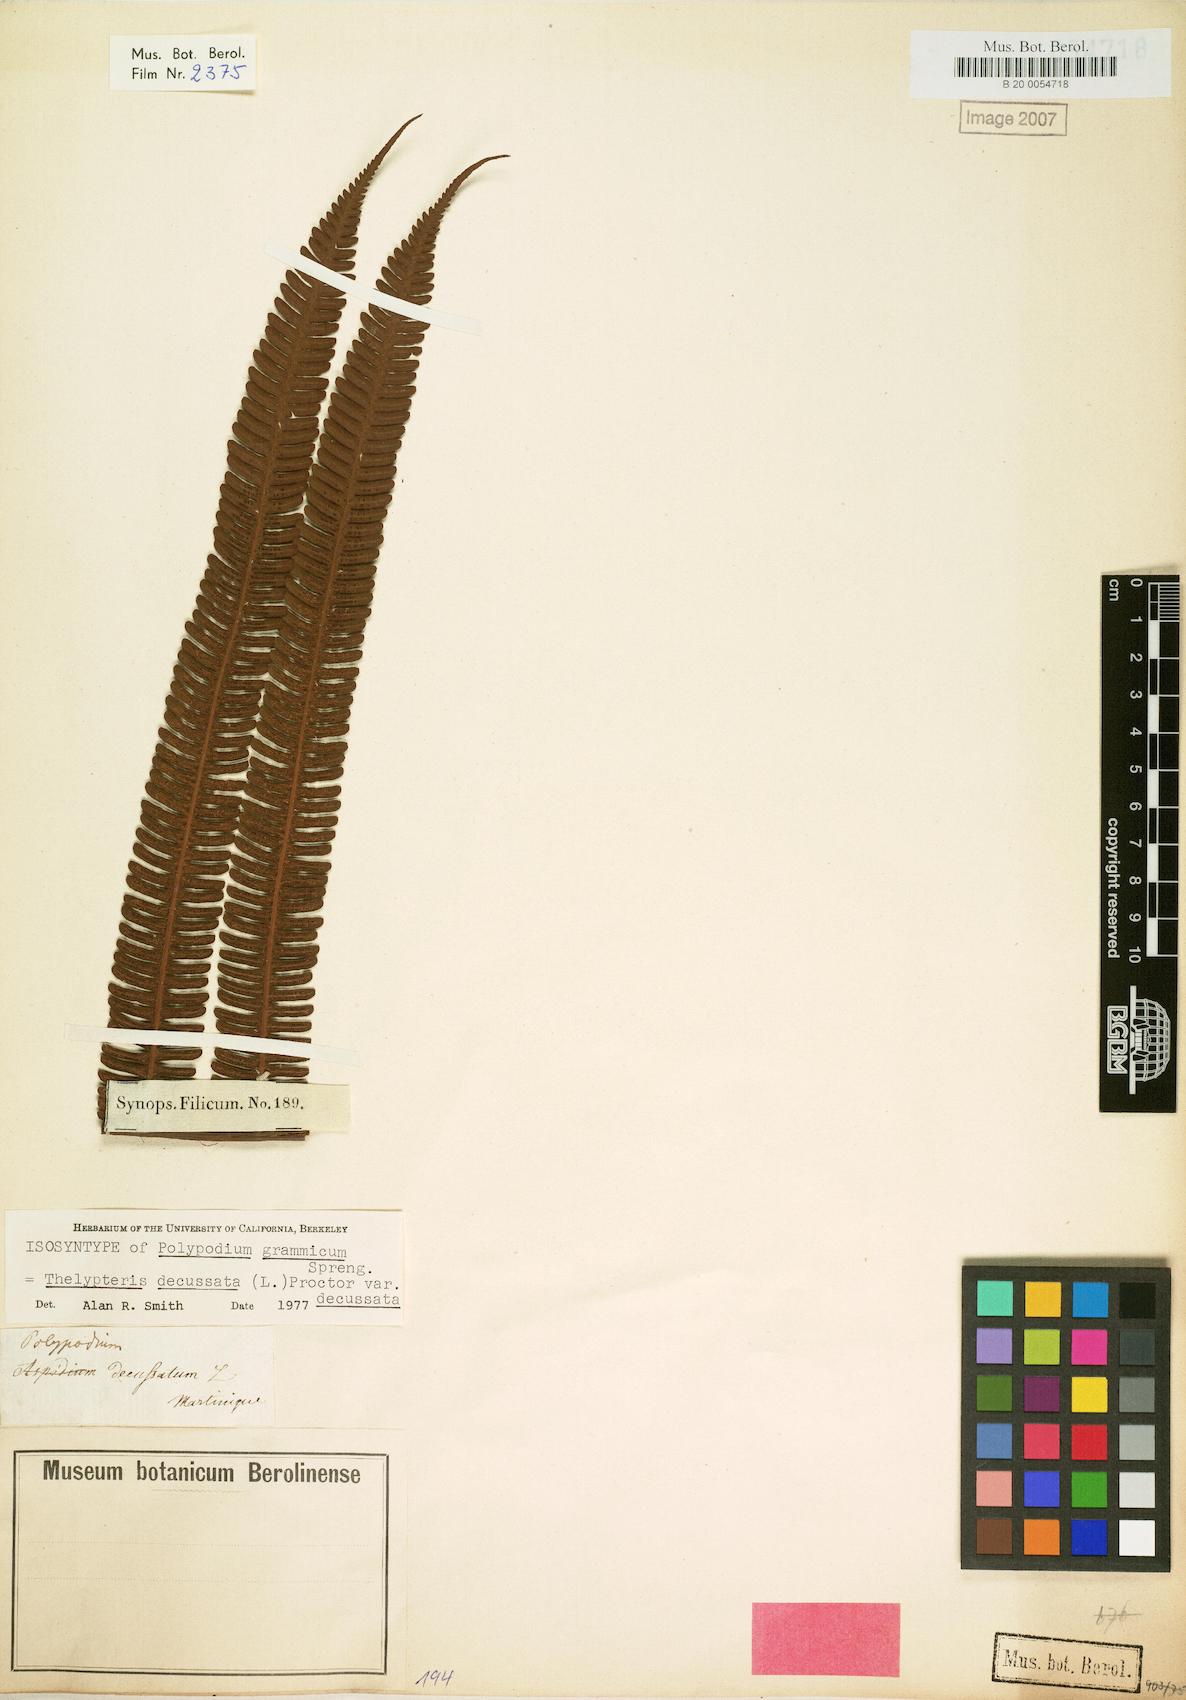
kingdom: Plantae
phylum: Tracheophyta
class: Polypodiopsida
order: Polypodiales
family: Thelypteridaceae
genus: Steiropteris
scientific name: Steiropteris decussata
